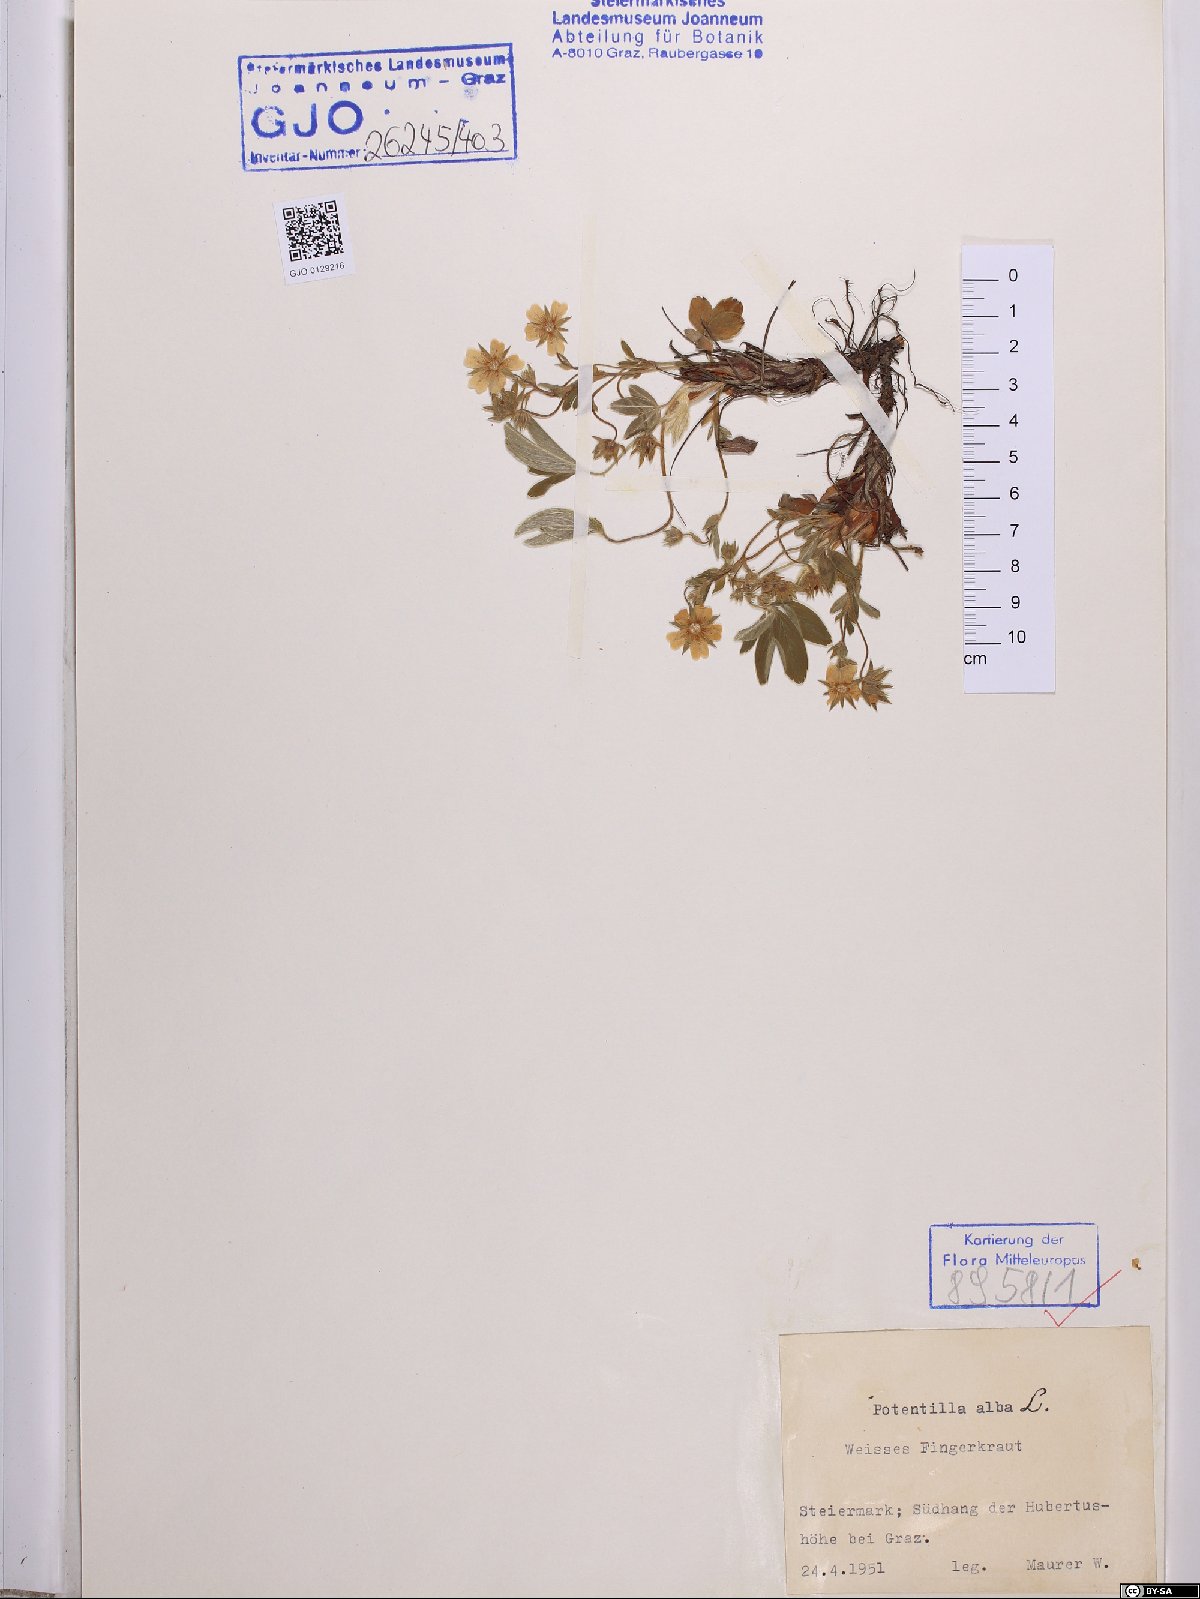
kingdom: Plantae
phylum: Tracheophyta
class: Magnoliopsida
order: Rosales
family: Rosaceae
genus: Potentilla
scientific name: Potentilla alba
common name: White cinquefoil
